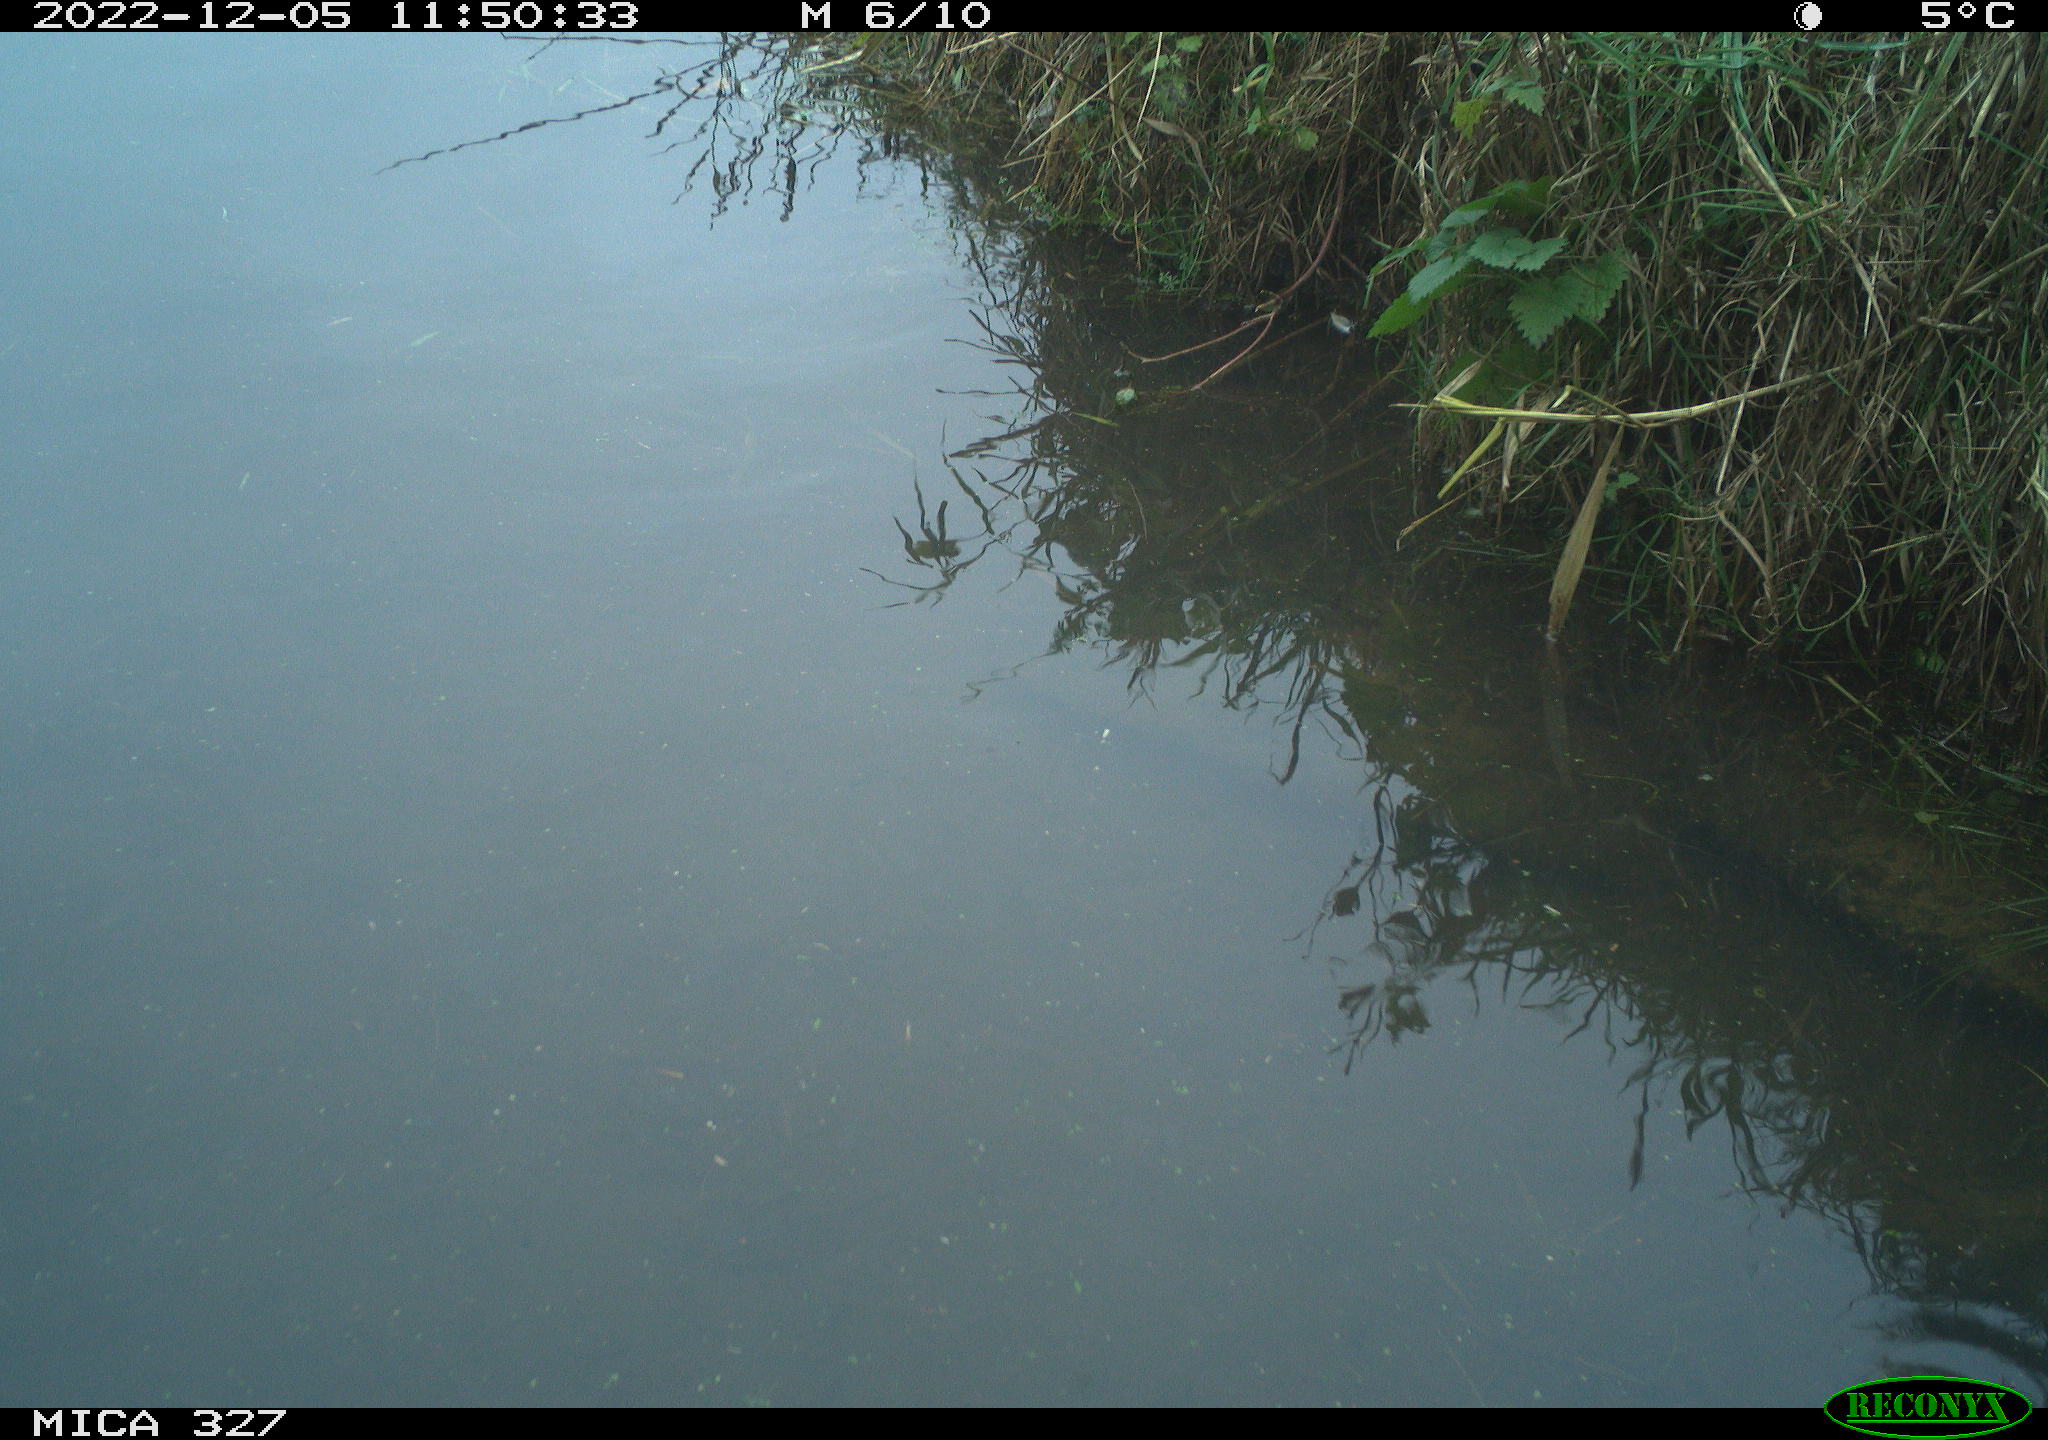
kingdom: Animalia
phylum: Chordata
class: Aves
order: Gruiformes
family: Rallidae
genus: Gallinula
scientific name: Gallinula chloropus
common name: Common moorhen
